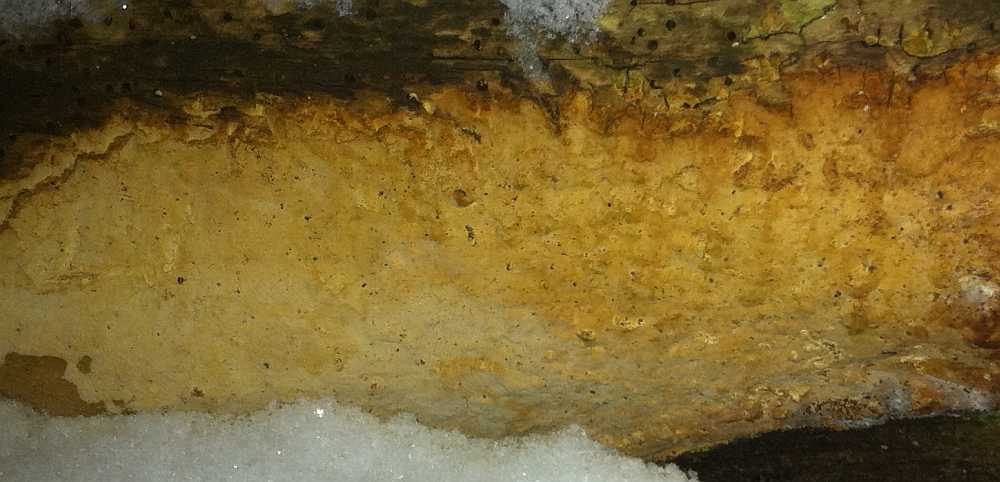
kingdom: Fungi
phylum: Basidiomycota
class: Agaricomycetes
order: Russulales
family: Peniophoraceae
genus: Scytinostroma
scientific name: Scytinostroma hemidichophyticum
